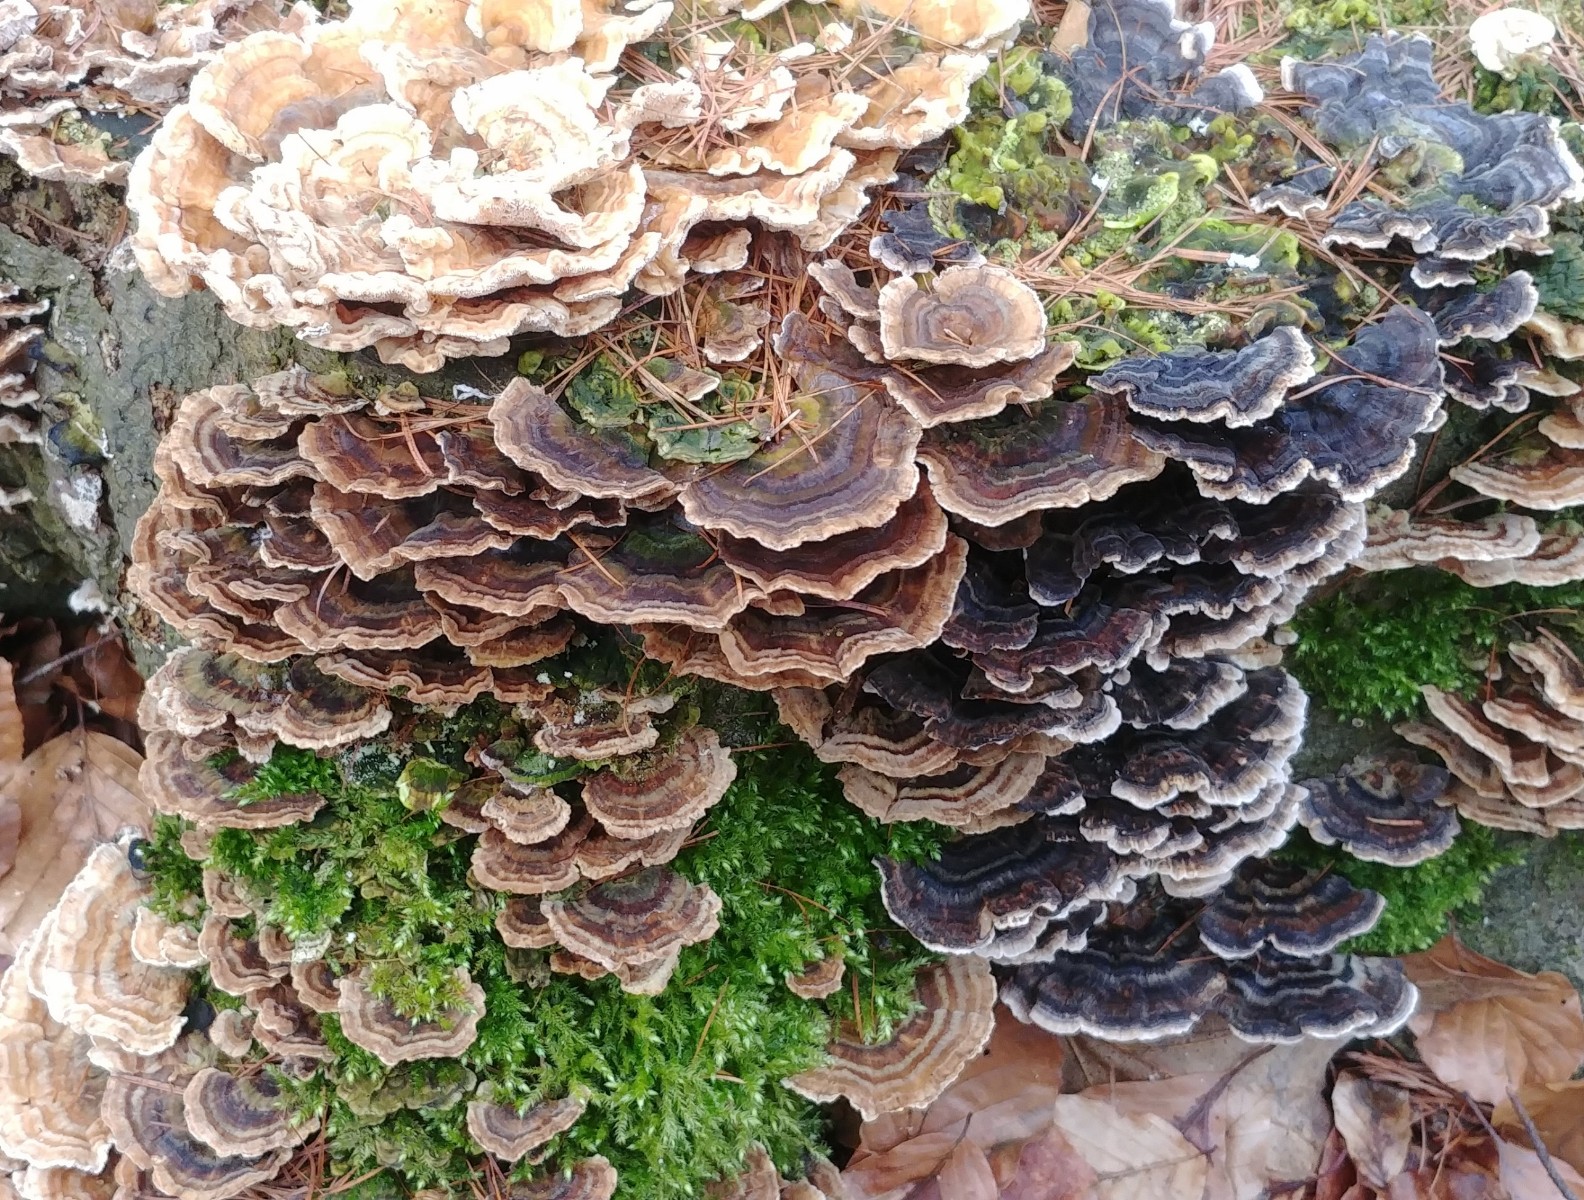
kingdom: Fungi
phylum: Basidiomycota
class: Agaricomycetes
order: Polyporales
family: Polyporaceae
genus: Trametes
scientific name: Trametes versicolor
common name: broget læderporesvamp
